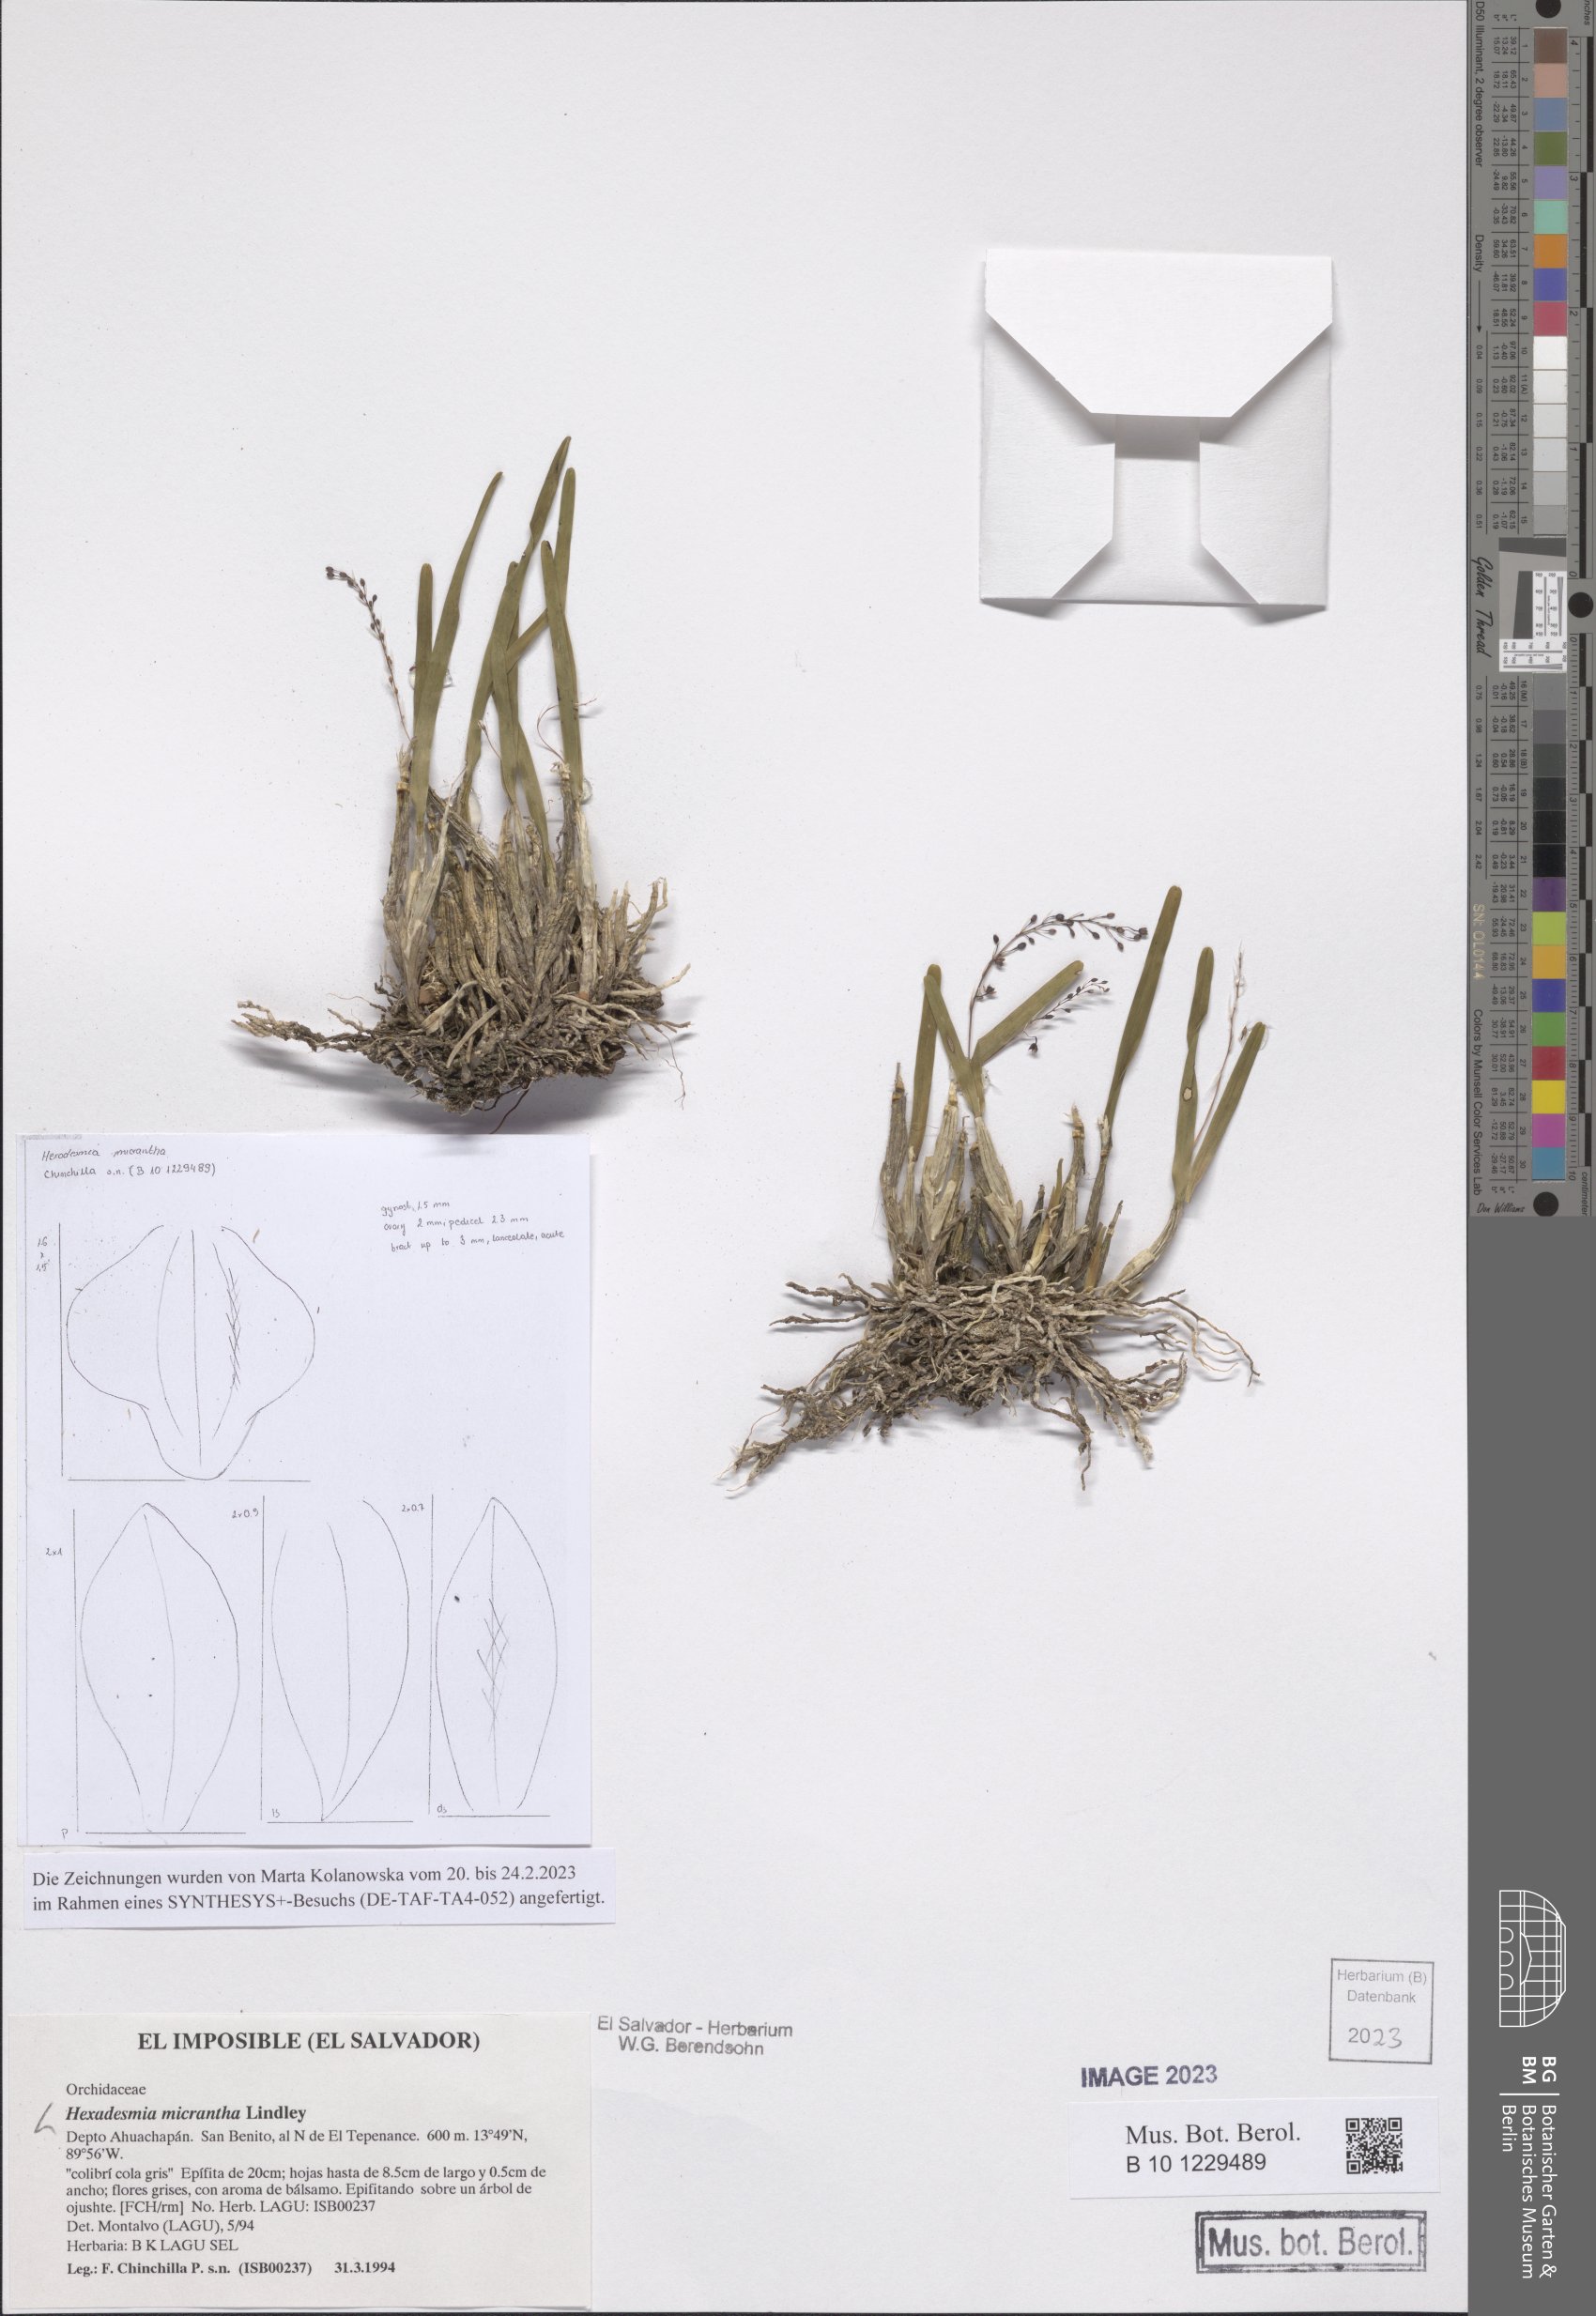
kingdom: Plantae
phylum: Tracheophyta
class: Liliopsida
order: Asparagales
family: Orchidaceae
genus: Scaphyglottis
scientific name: Scaphyglottis micrantha
